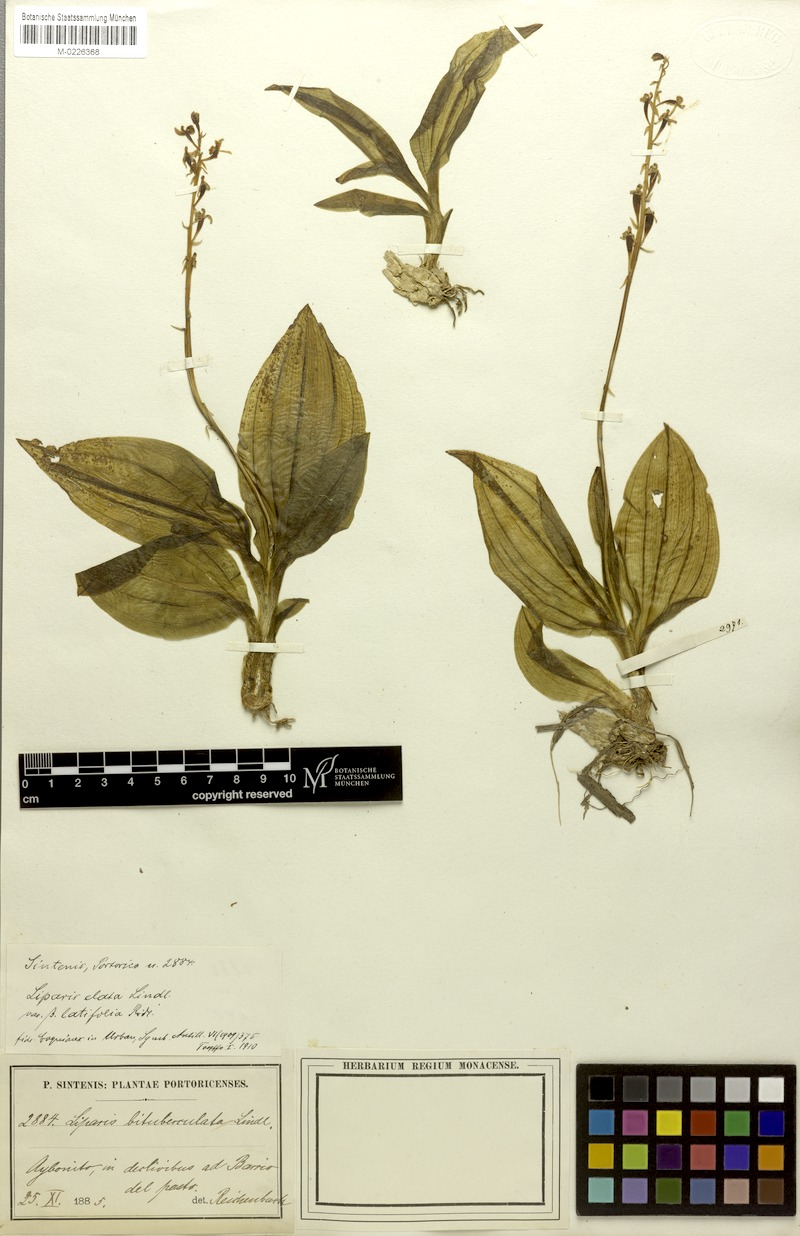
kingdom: Plantae
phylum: Tracheophyta
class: Liliopsida
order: Asparagales
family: Orchidaceae
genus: Liparis
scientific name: Liparis nervosa
